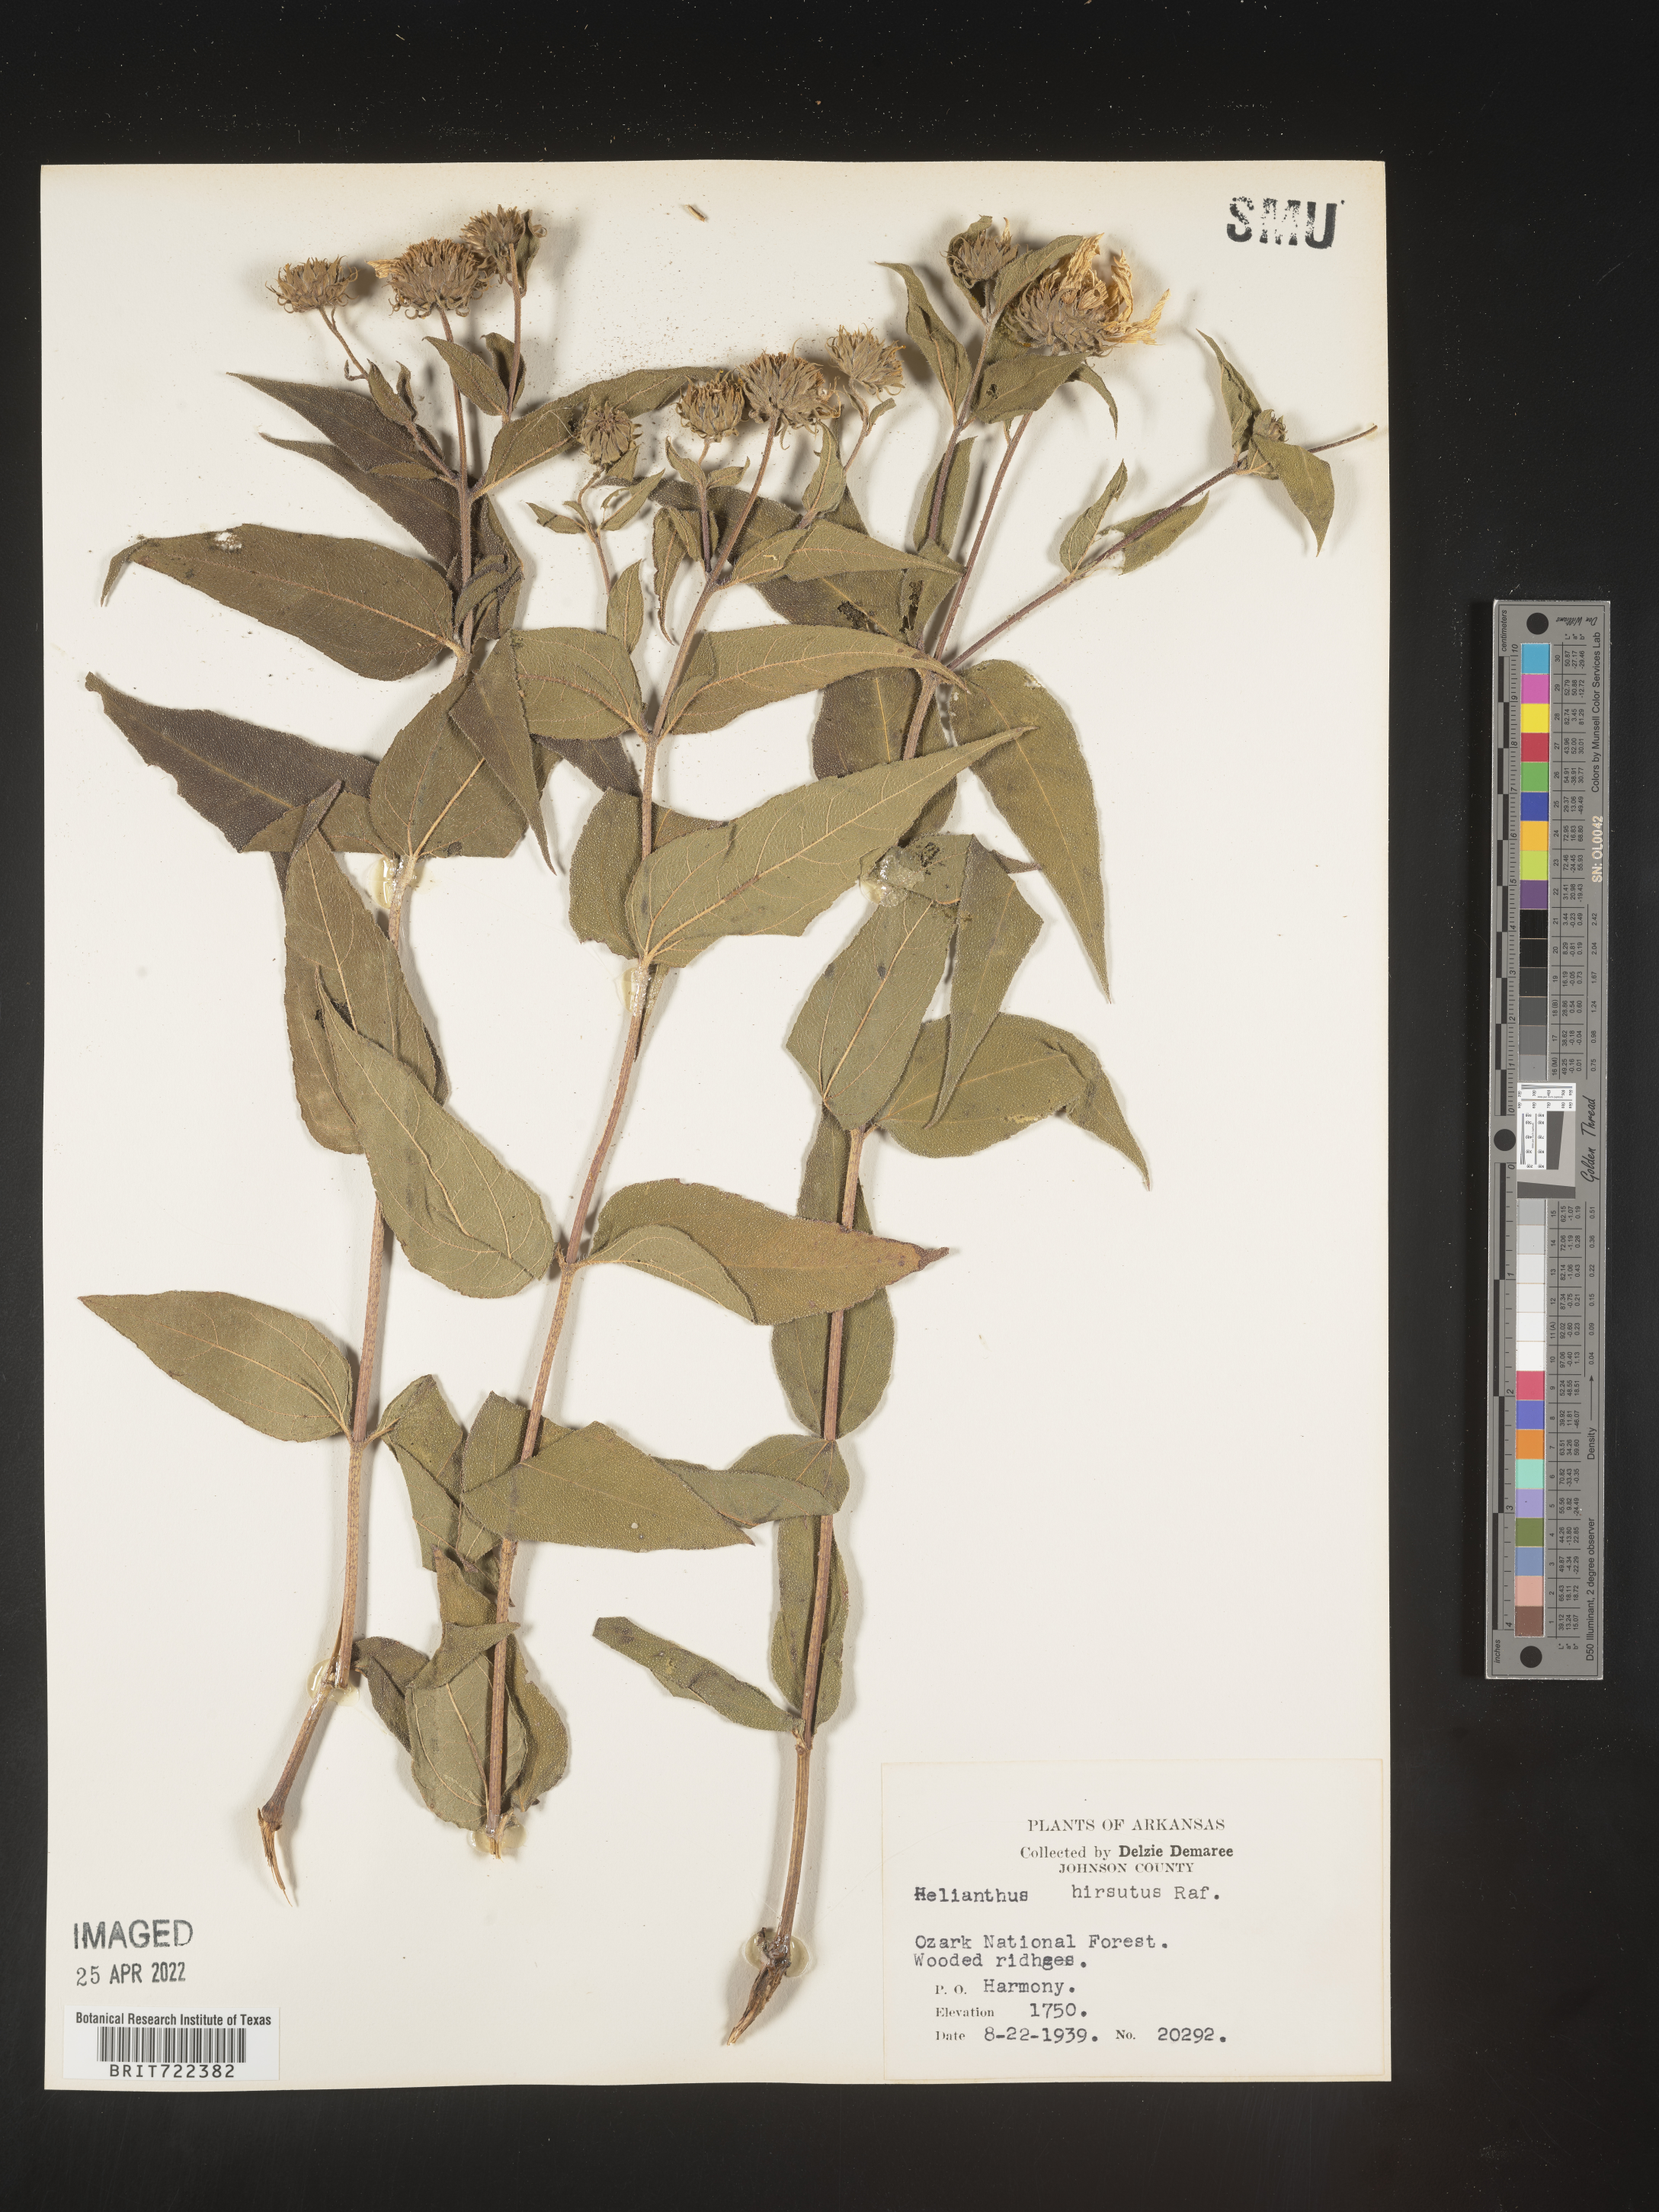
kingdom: Plantae
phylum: Tracheophyta
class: Magnoliopsida
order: Asterales
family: Asteraceae
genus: Helianthus
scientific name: Helianthus hirsutus
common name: Hairy sunflower
